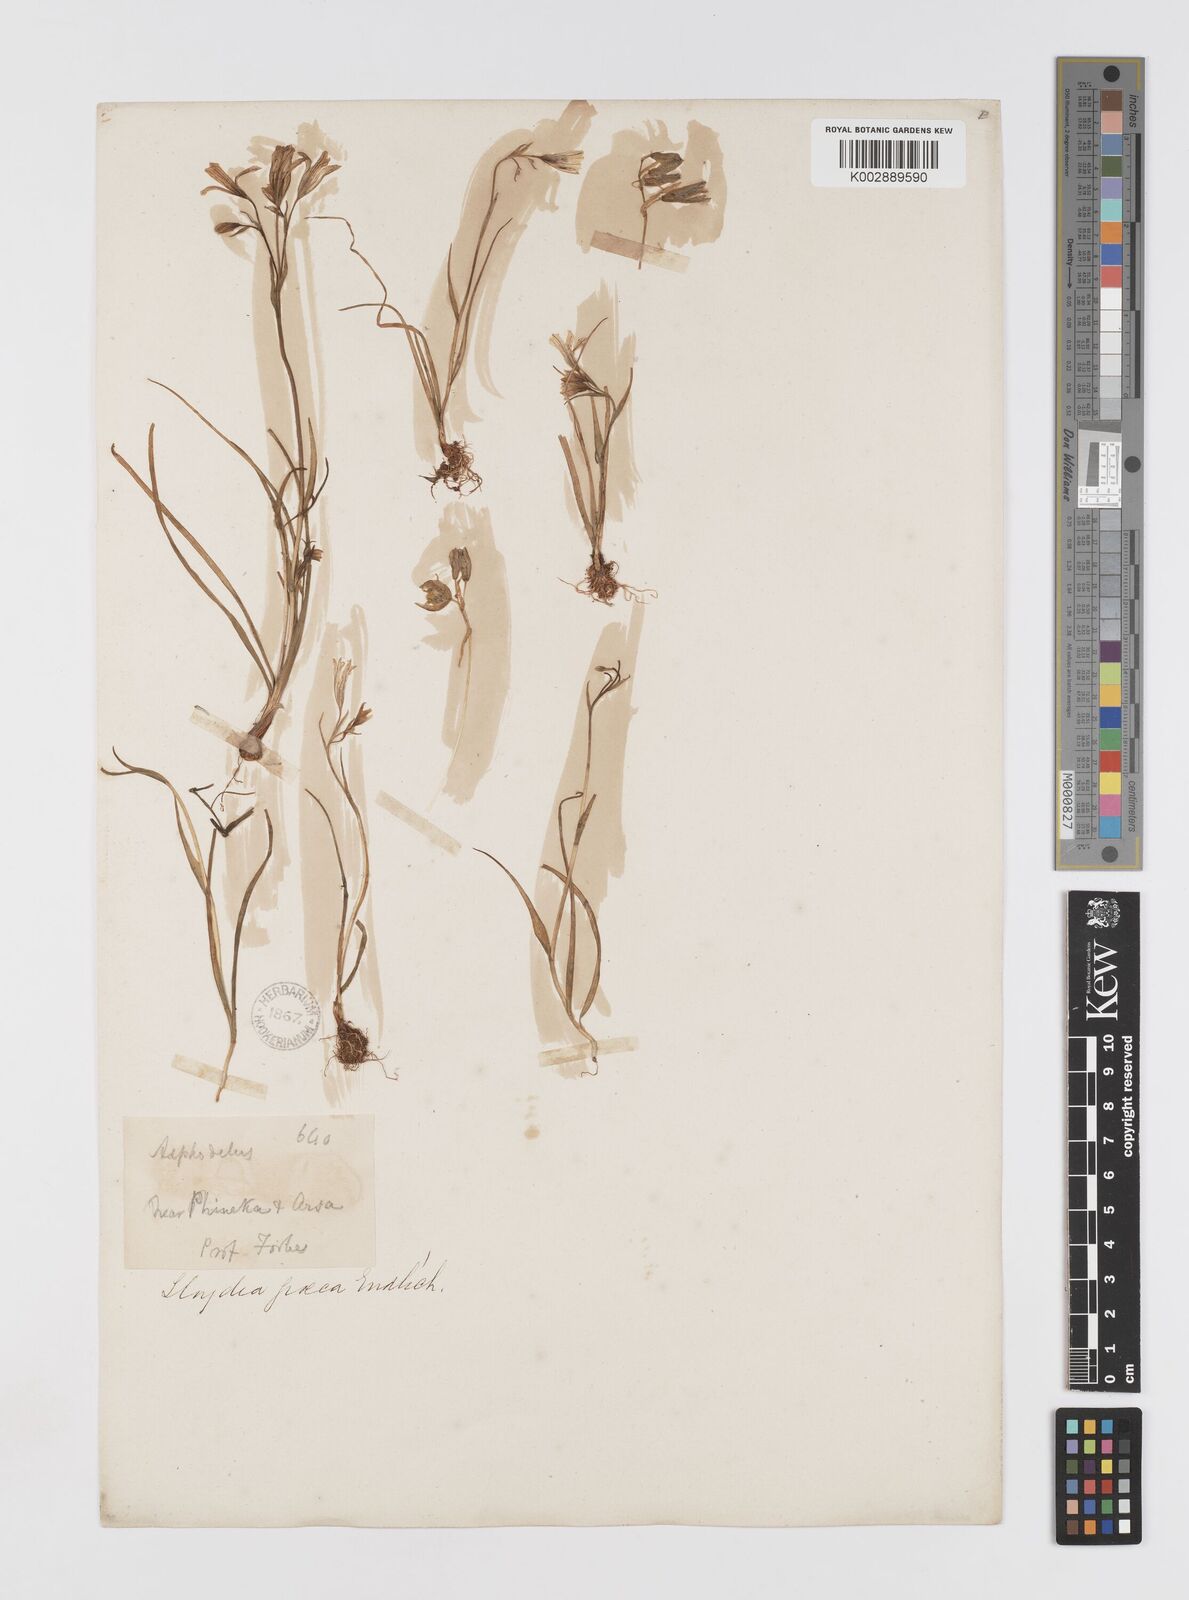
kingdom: Plantae
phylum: Tracheophyta
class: Liliopsida
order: Liliales
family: Liliaceae
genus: Gagea
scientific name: Gagea graeca
